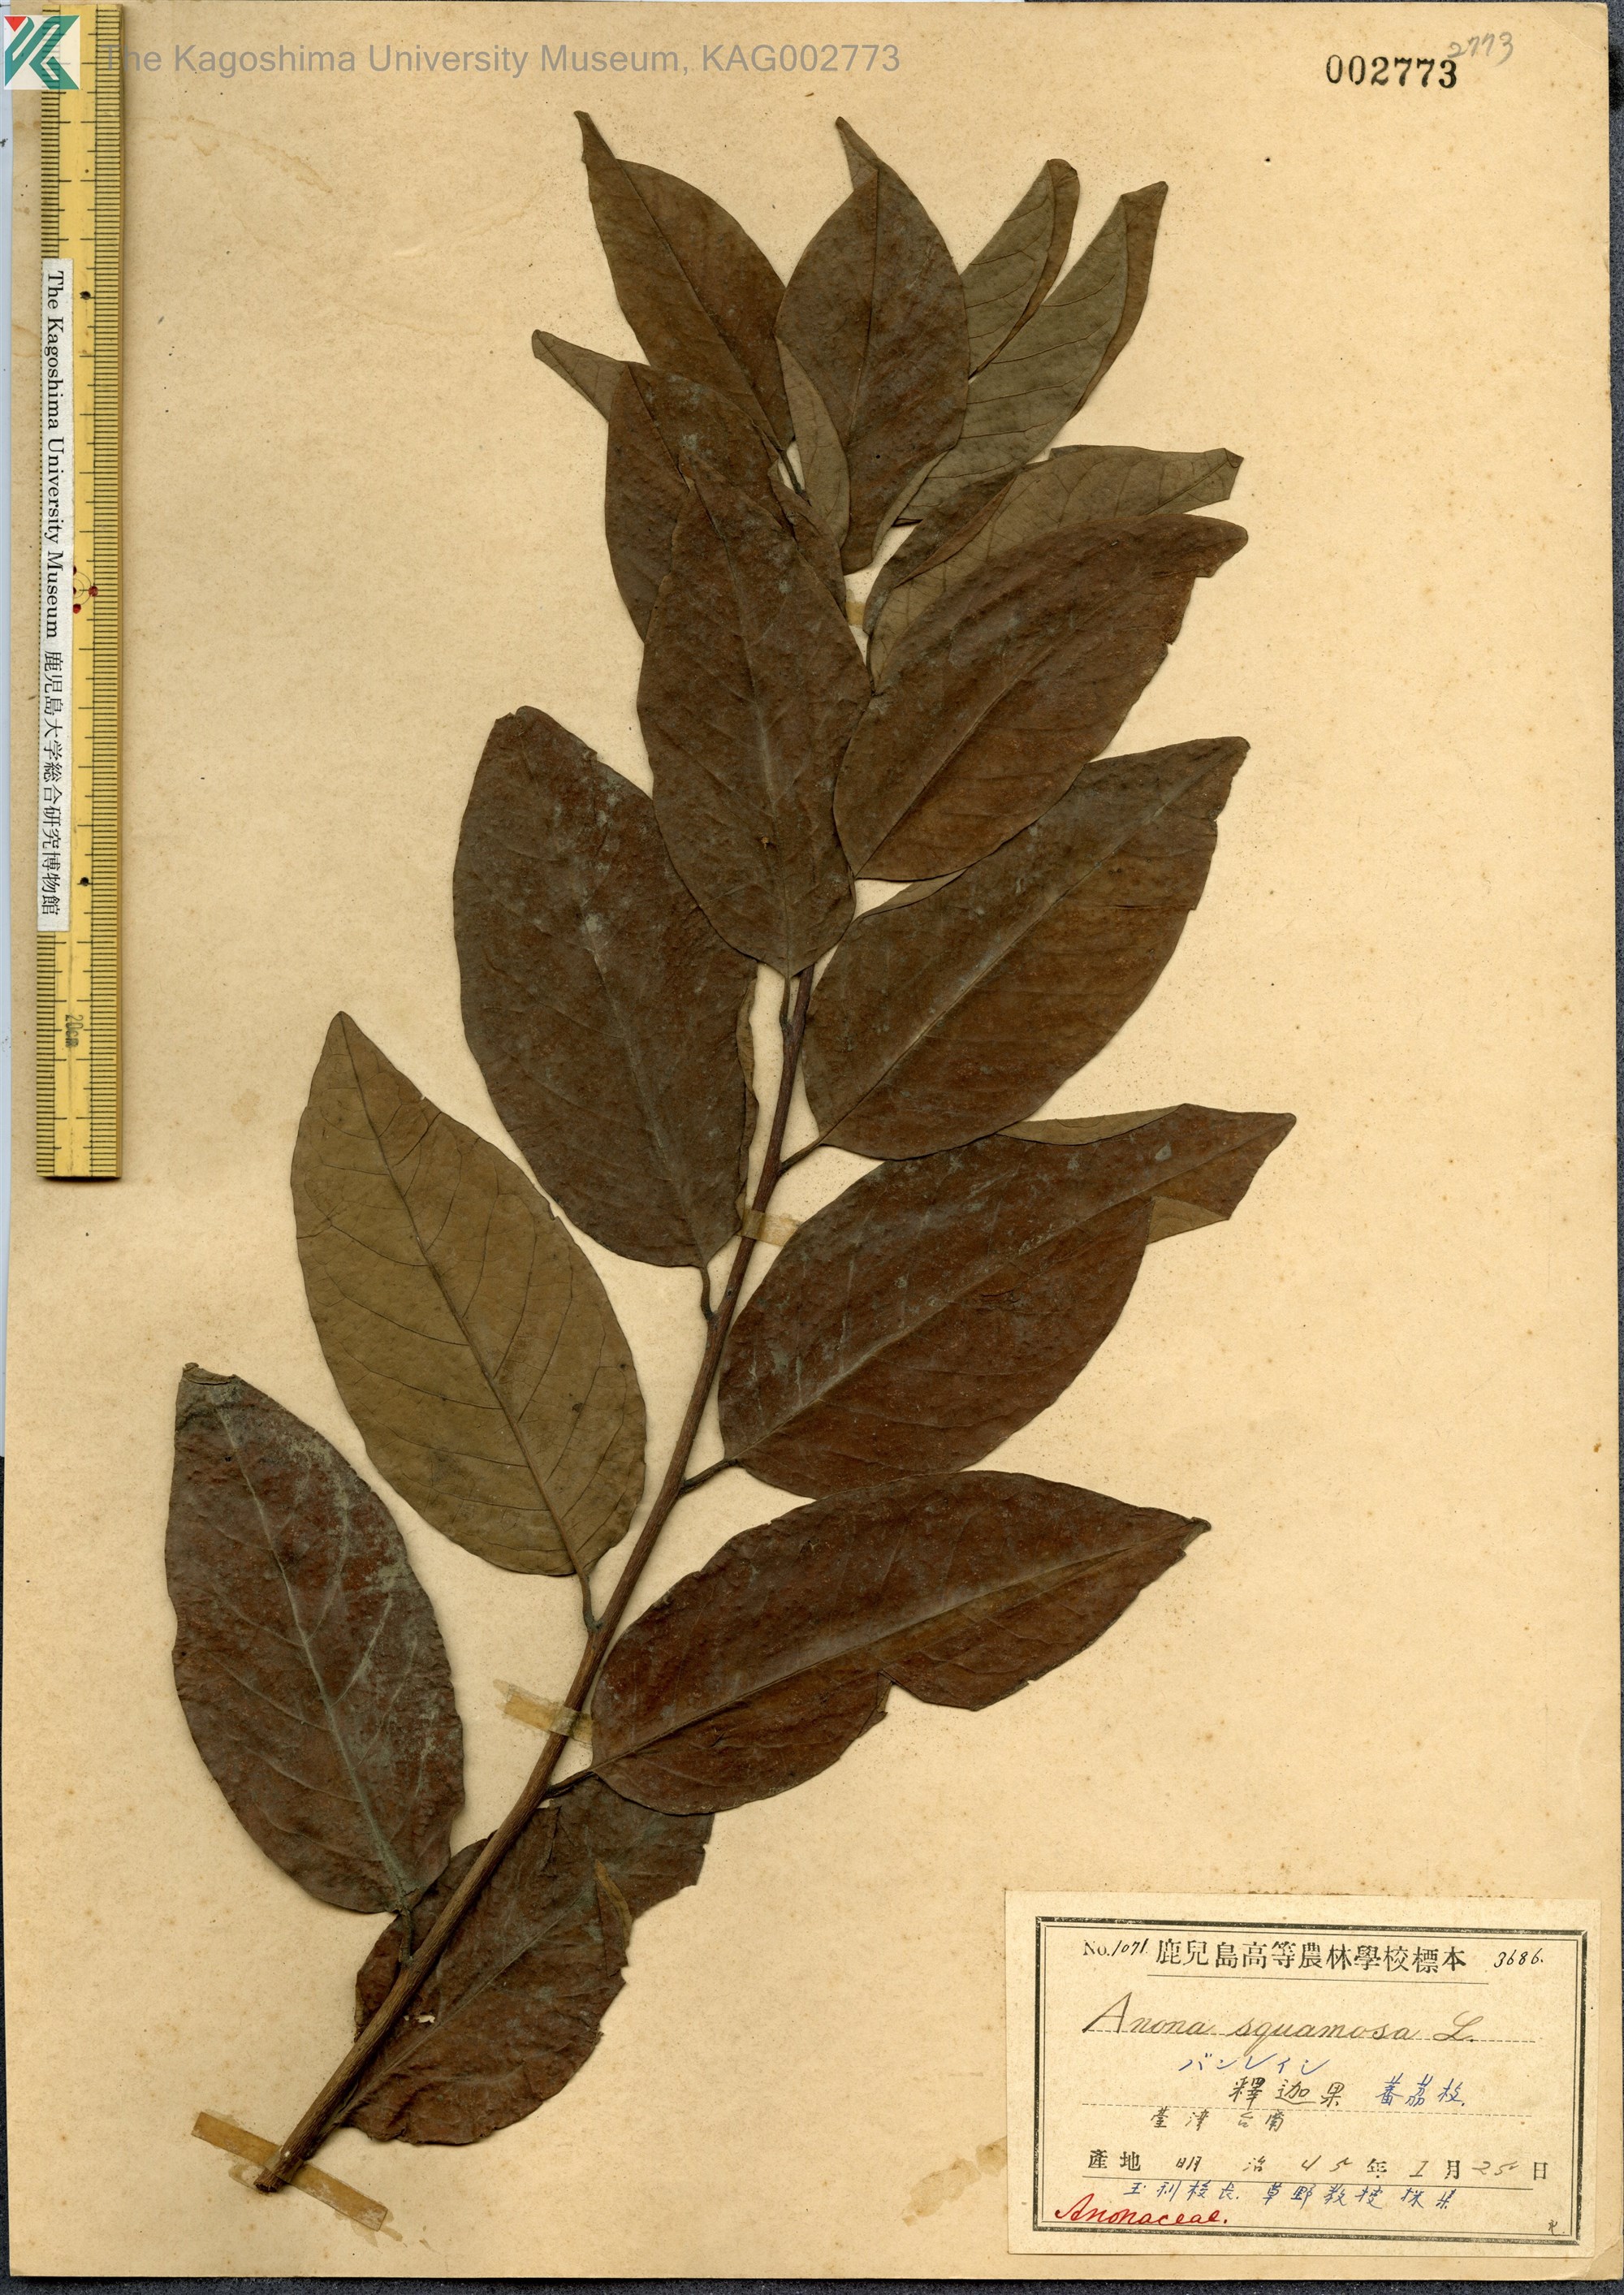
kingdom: Plantae
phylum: Tracheophyta
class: Magnoliopsida
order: Magnoliales
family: Annonaceae
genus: Annona
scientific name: Annona glabra
